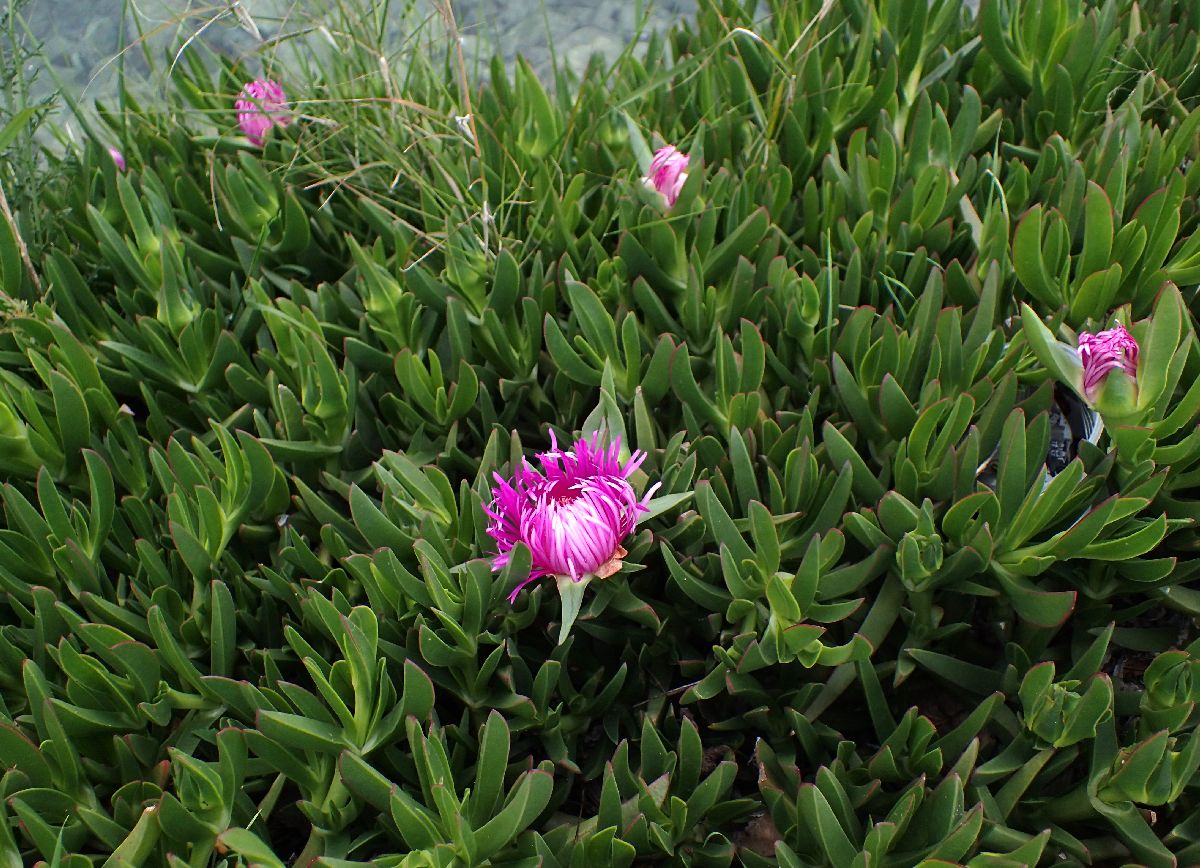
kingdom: Plantae
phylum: Tracheophyta
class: Magnoliopsida
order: Caryophyllales
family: Aizoaceae
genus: Carpobrotus
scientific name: Carpobrotus edulis
